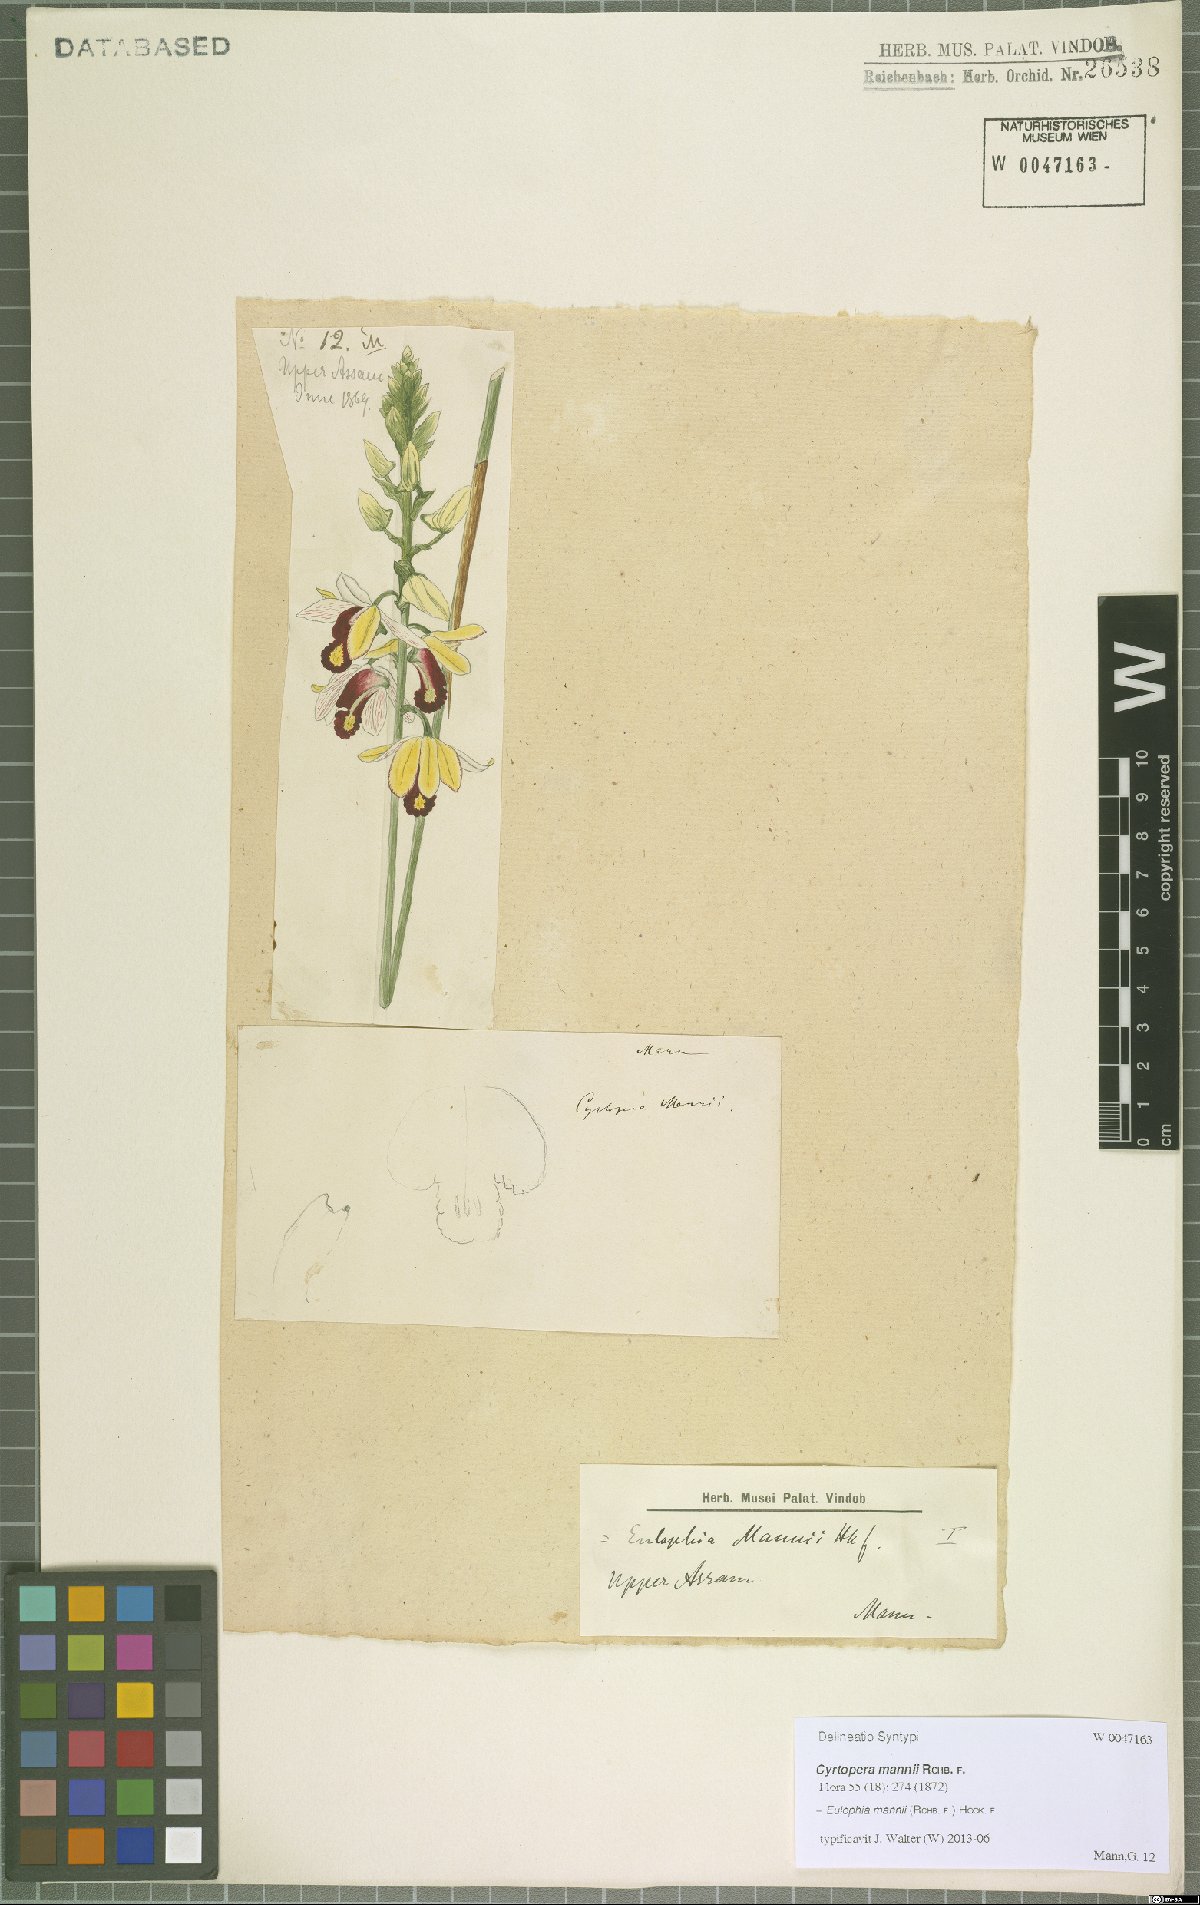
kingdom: Plantae
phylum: Tracheophyta
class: Liliopsida
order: Asparagales
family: Orchidaceae
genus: Eulophia
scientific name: Eulophia mannii
